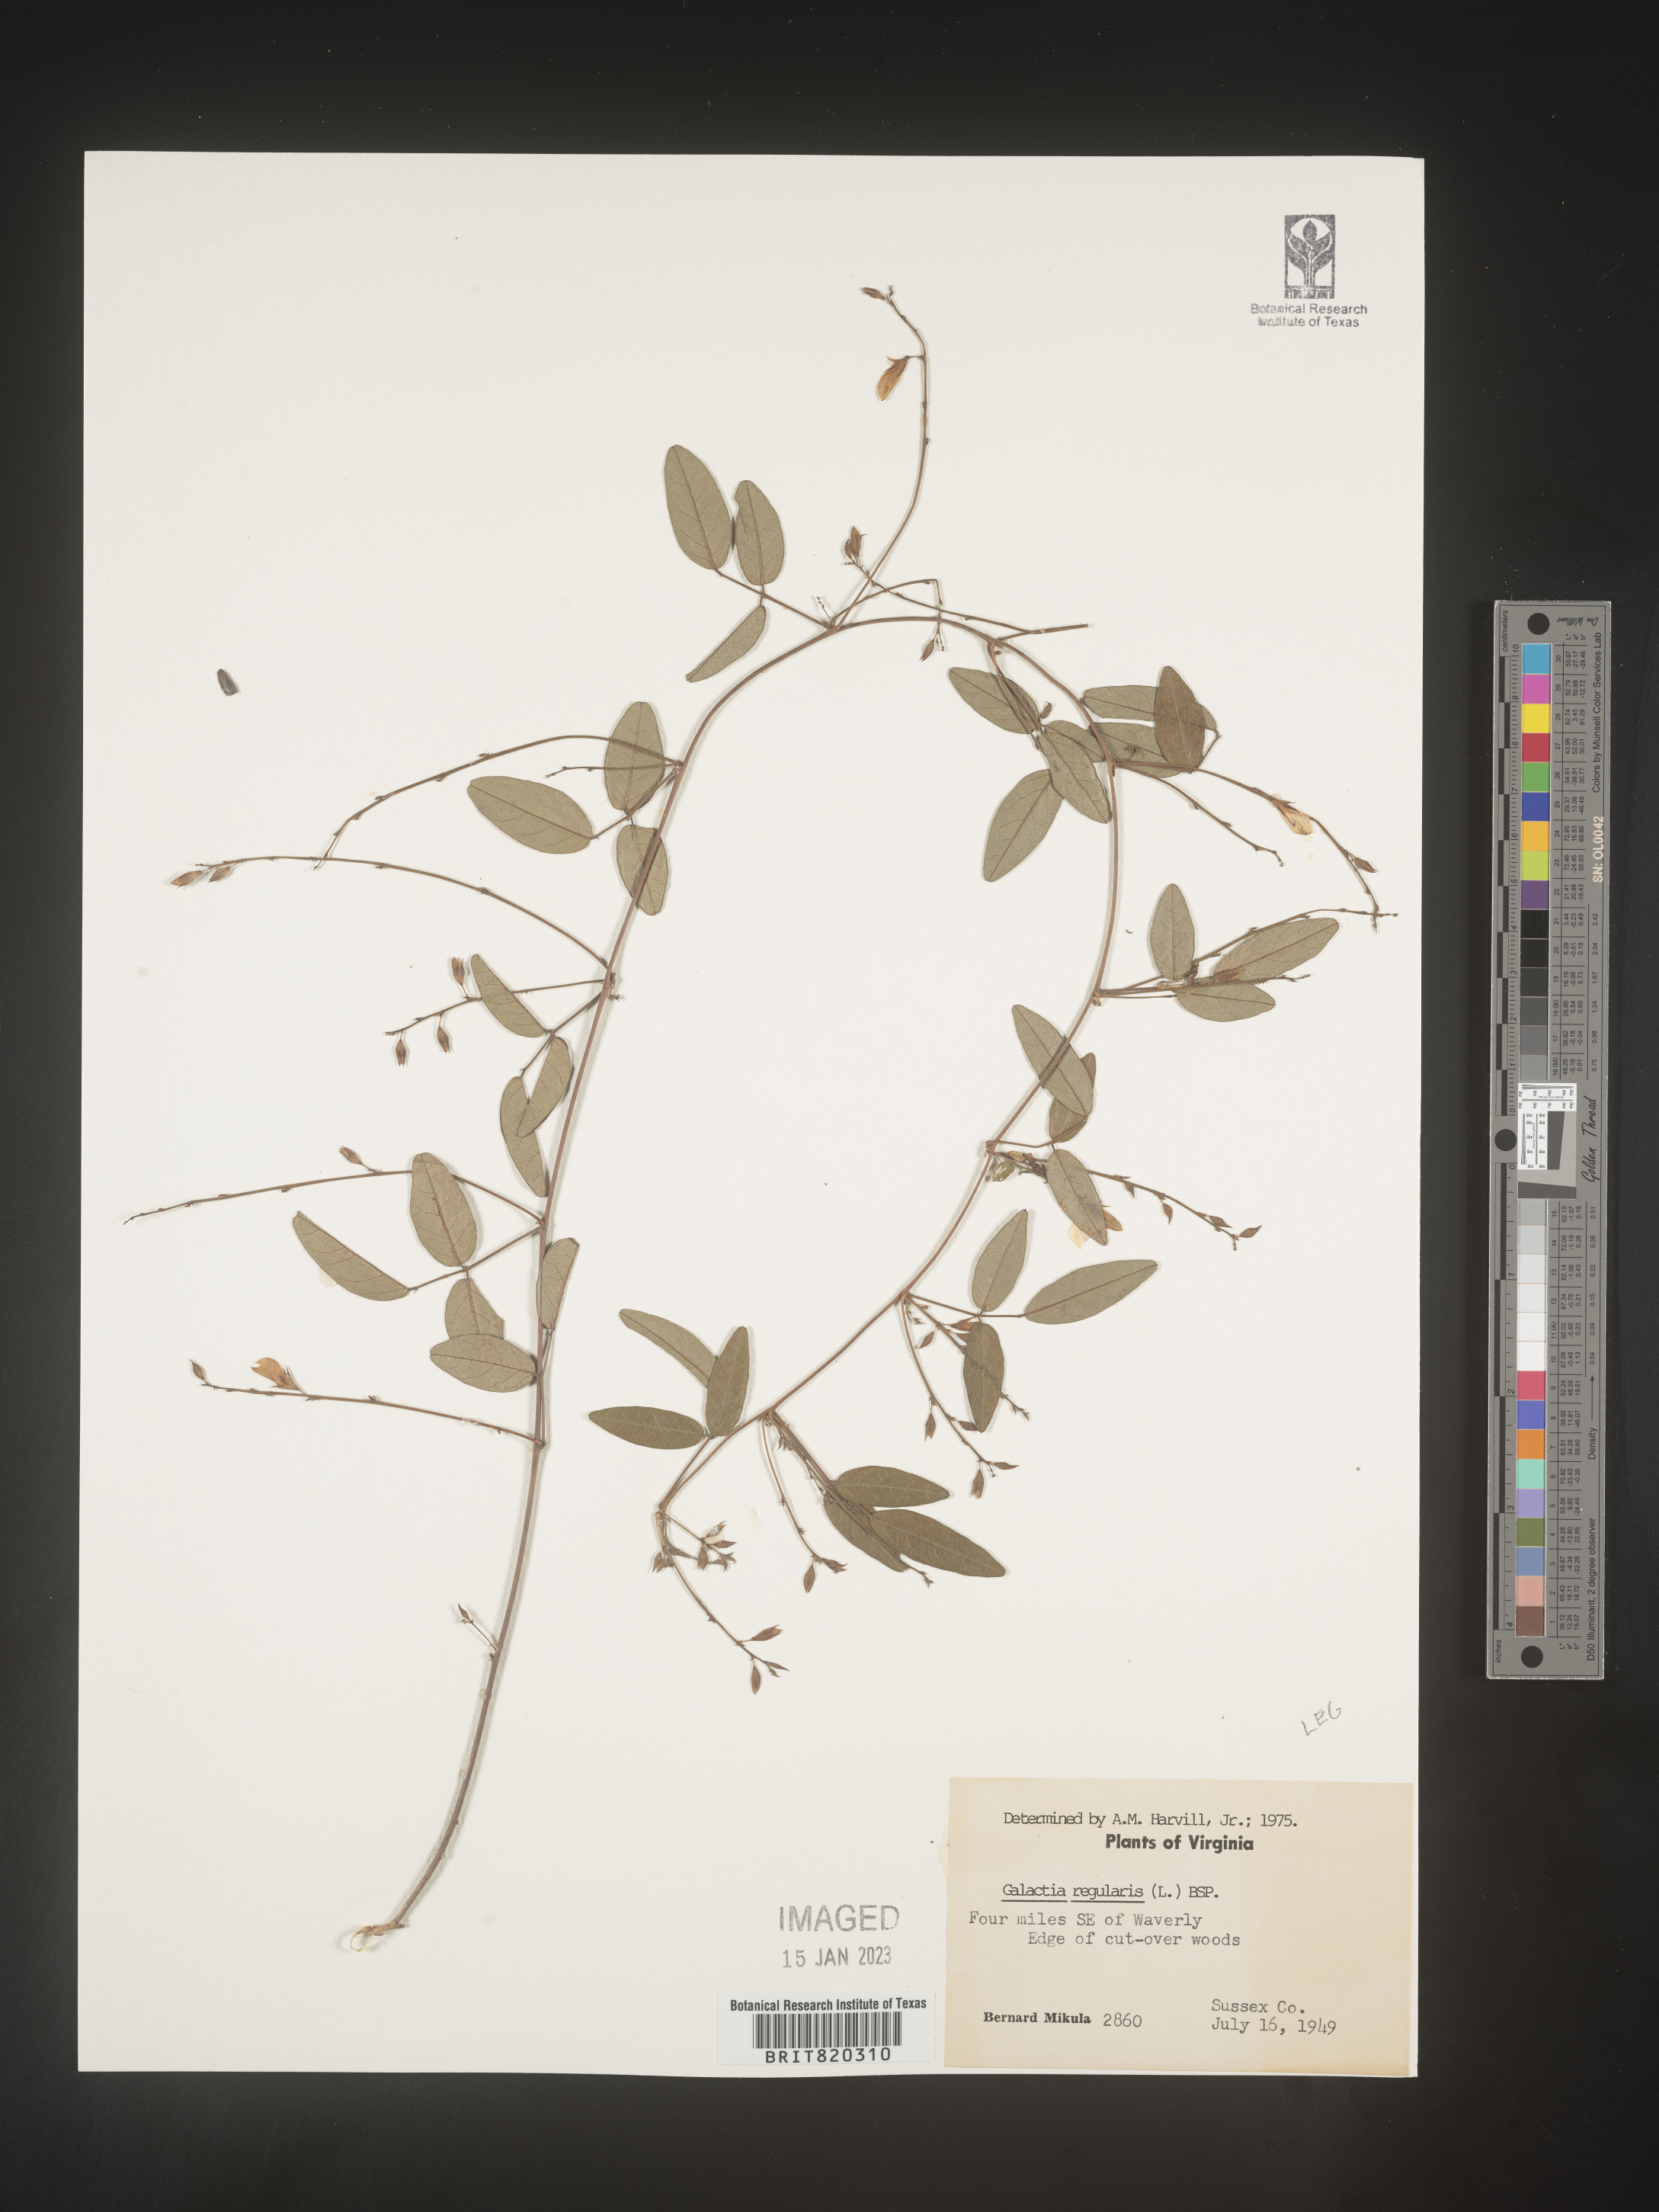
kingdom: Plantae
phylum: Tracheophyta
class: Magnoliopsida
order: Fabales
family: Fabaceae
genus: Galactia
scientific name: Galactia regularis
